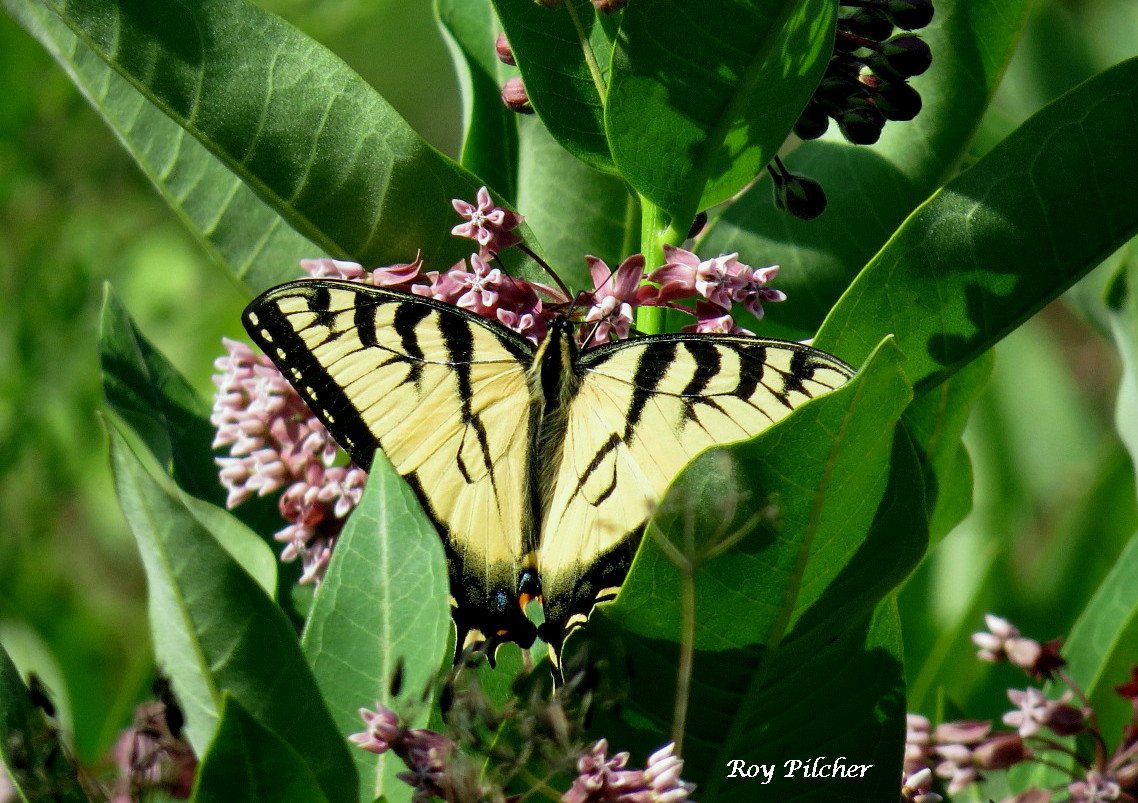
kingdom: Animalia
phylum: Arthropoda
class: Insecta
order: Lepidoptera
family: Papilionidae
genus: Pterourus
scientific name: Pterourus glaucus
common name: Eastern Tiger Swallowtail
